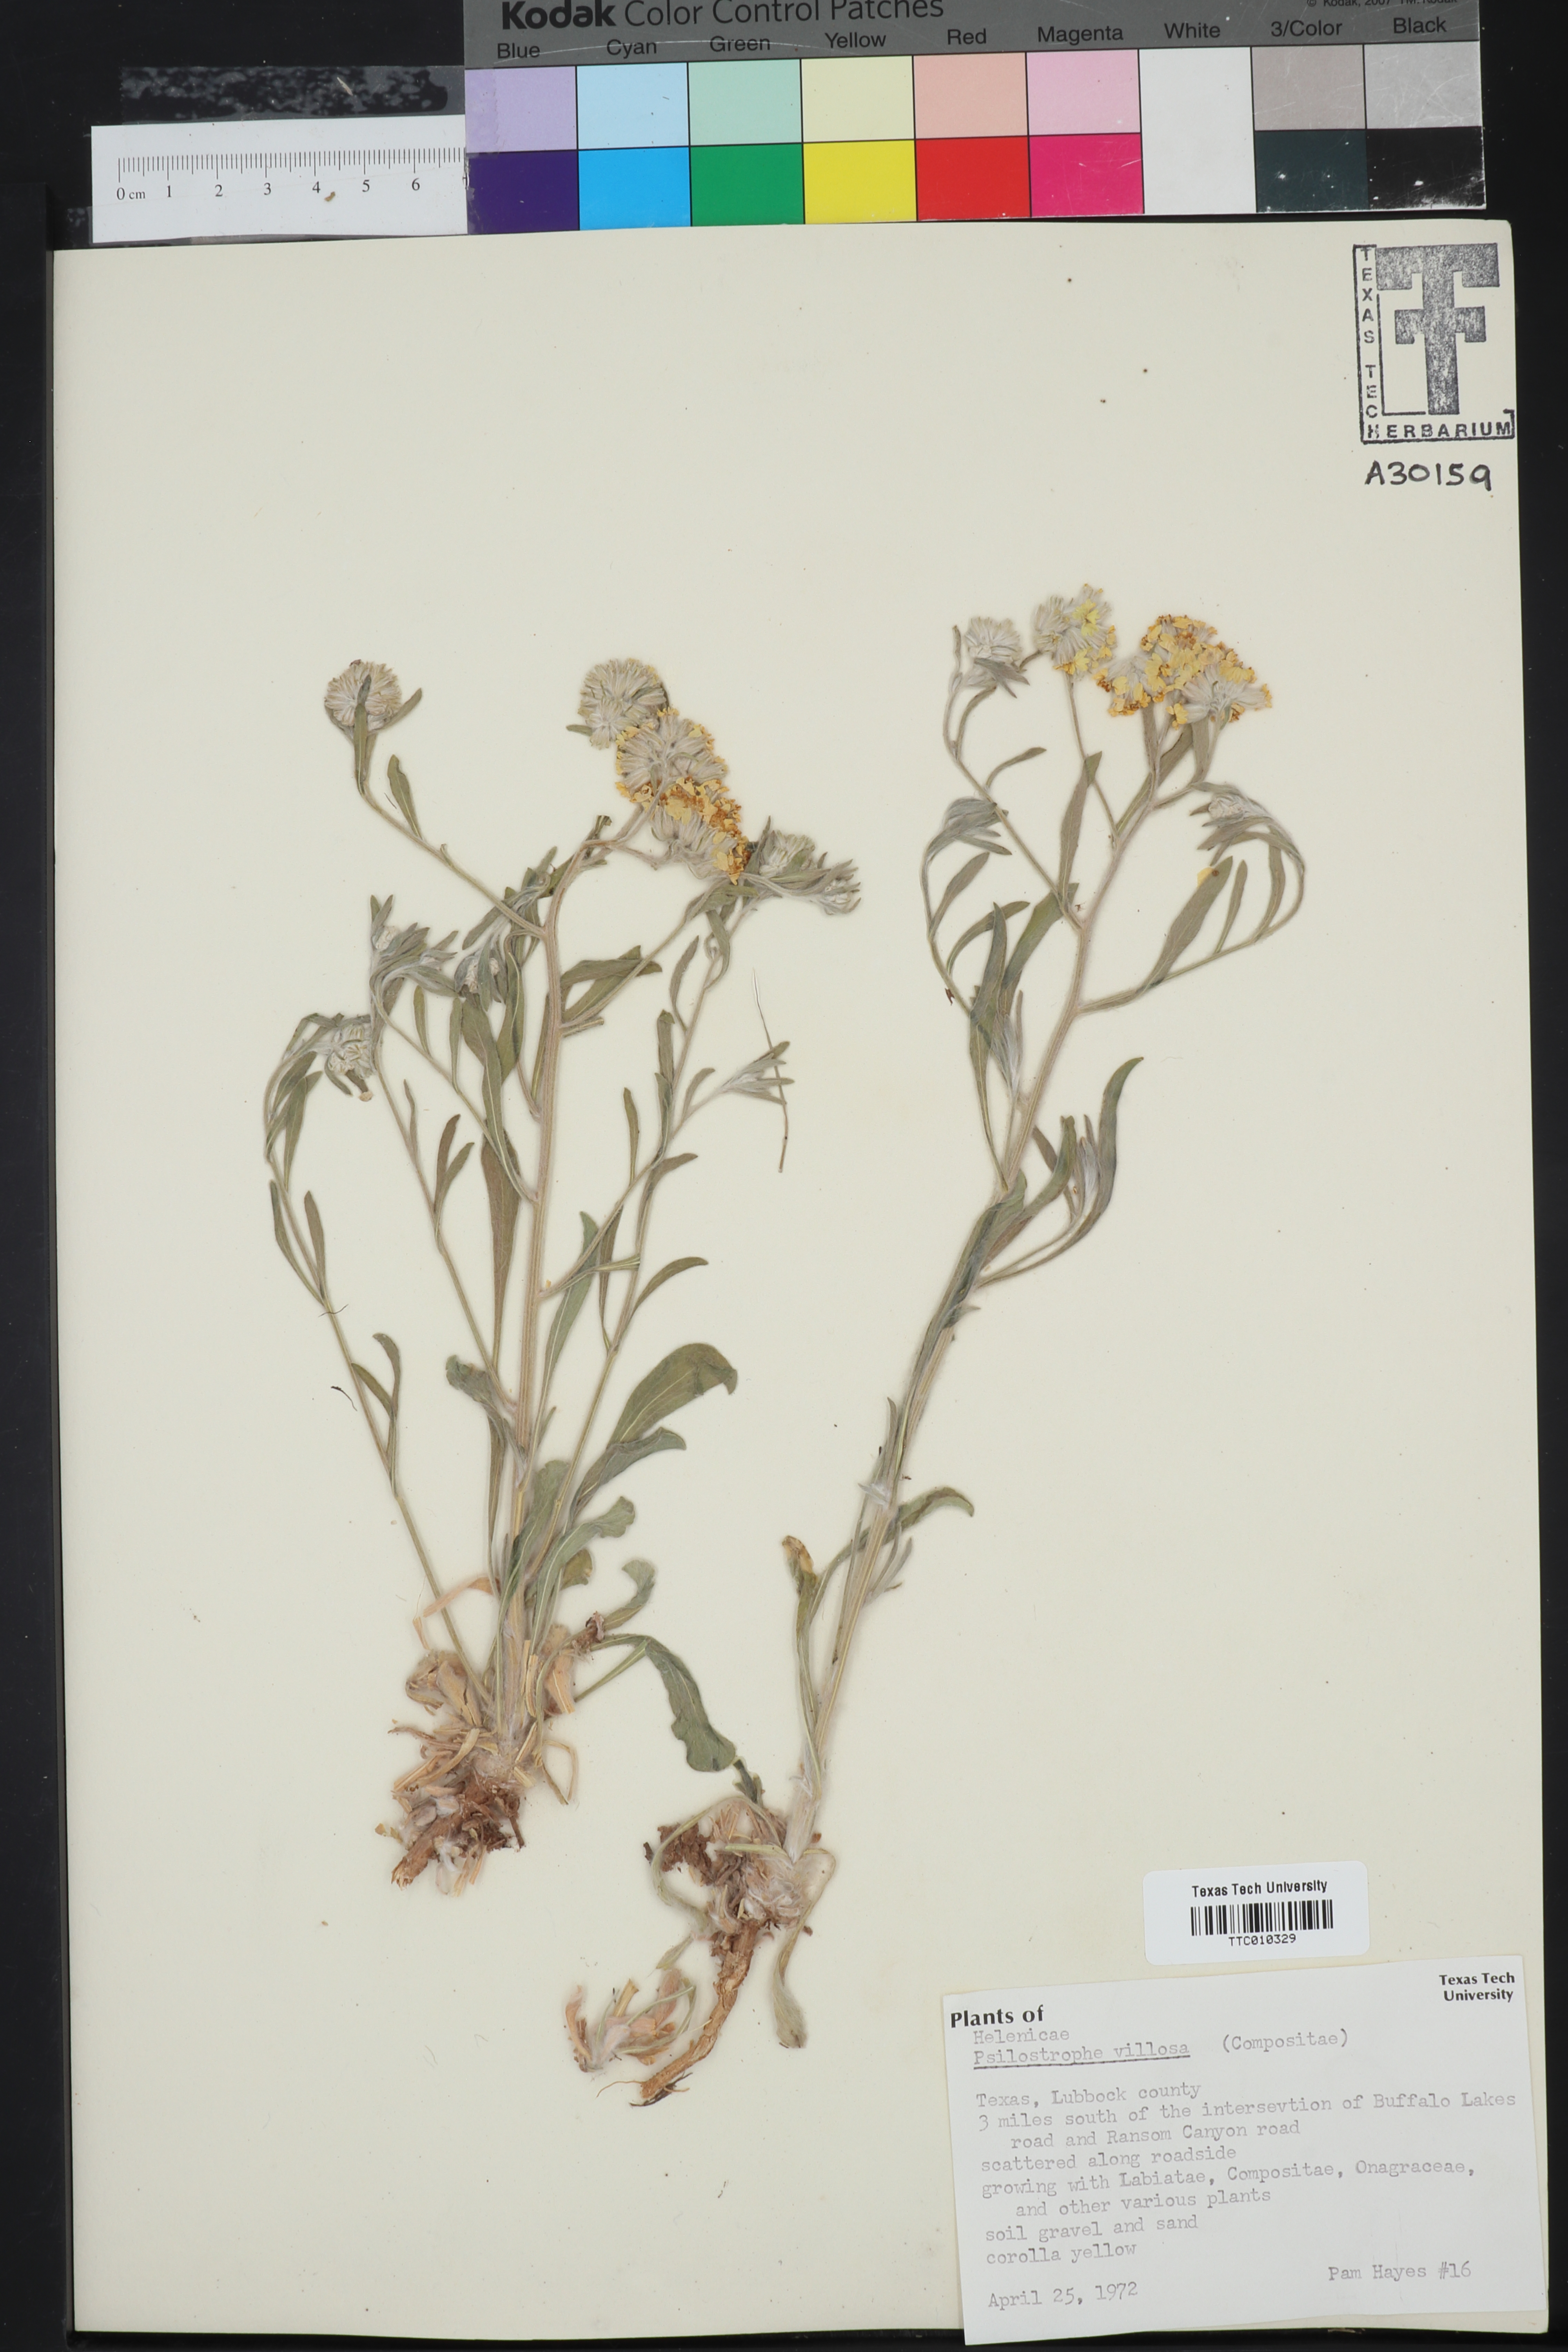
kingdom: Plantae
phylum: Tracheophyta
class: Magnoliopsida
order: Asterales
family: Asteraceae
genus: Psilostrophe
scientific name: Psilostrophe villosa
